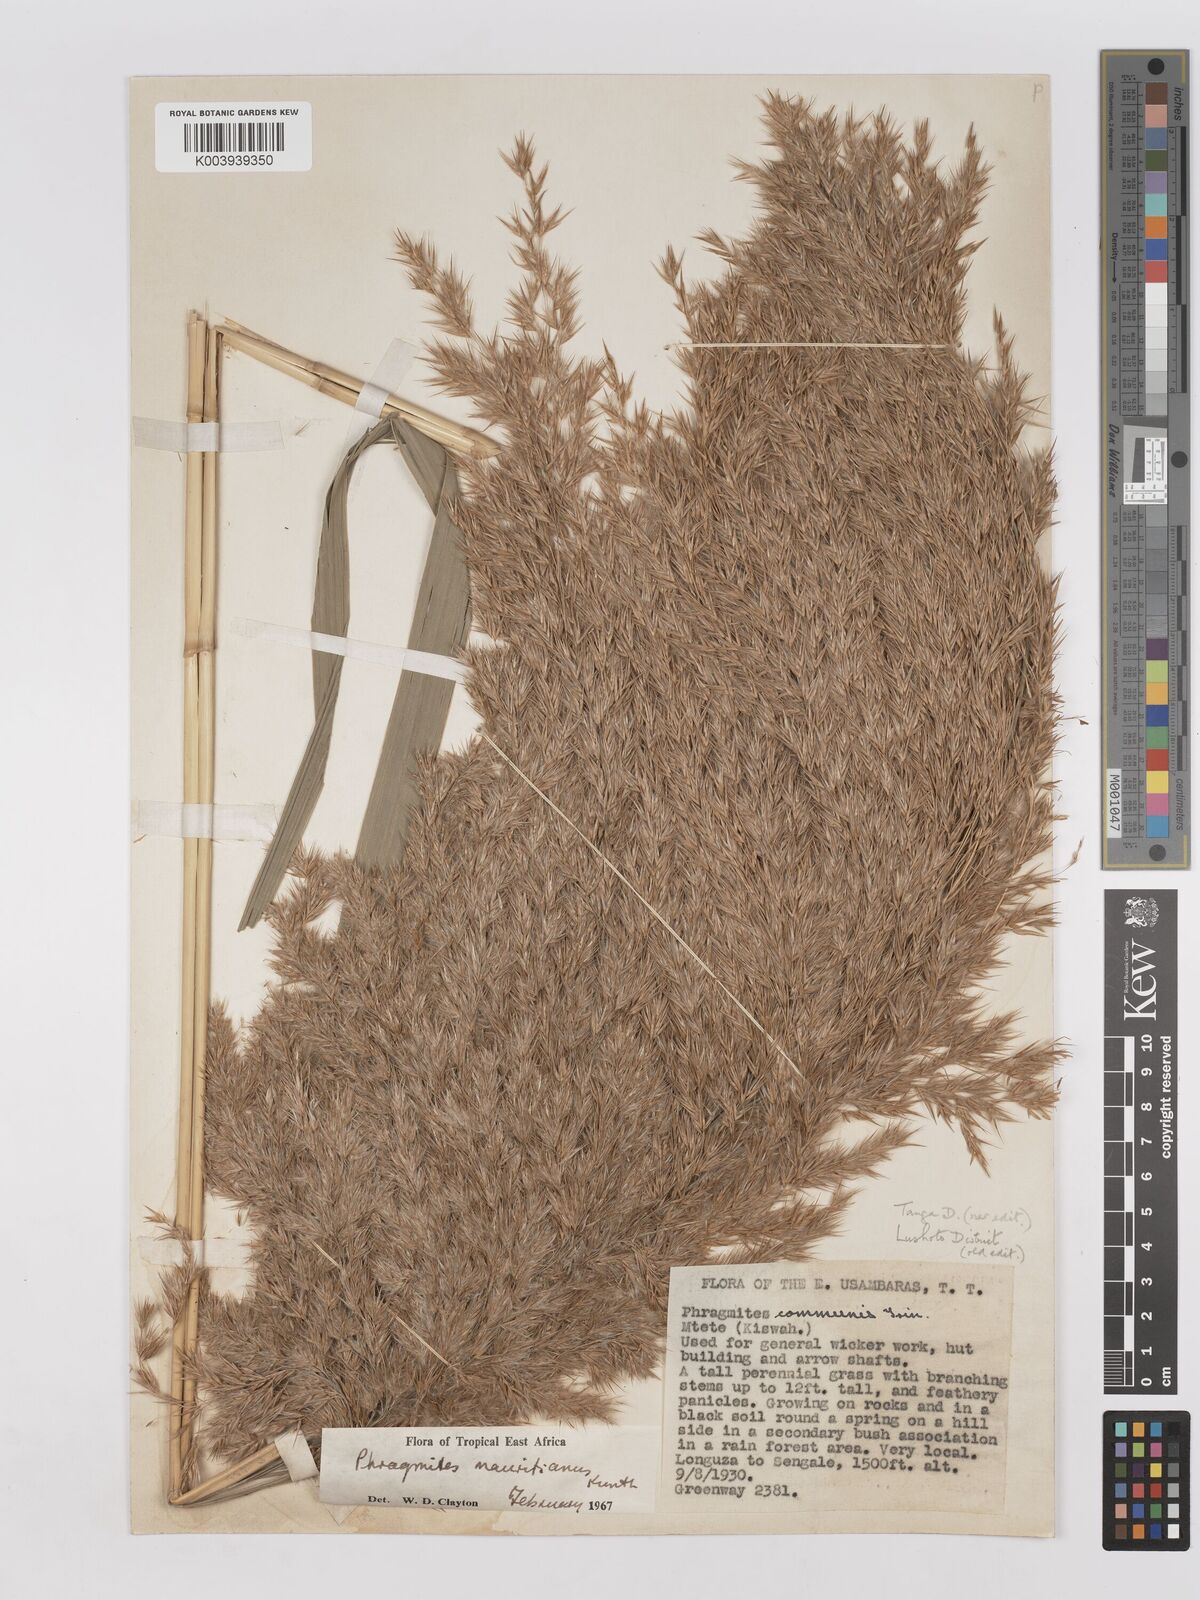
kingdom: Plantae
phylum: Tracheophyta
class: Liliopsida
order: Poales
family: Poaceae
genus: Phragmites
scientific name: Phragmites mauritianus
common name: Reed grass
